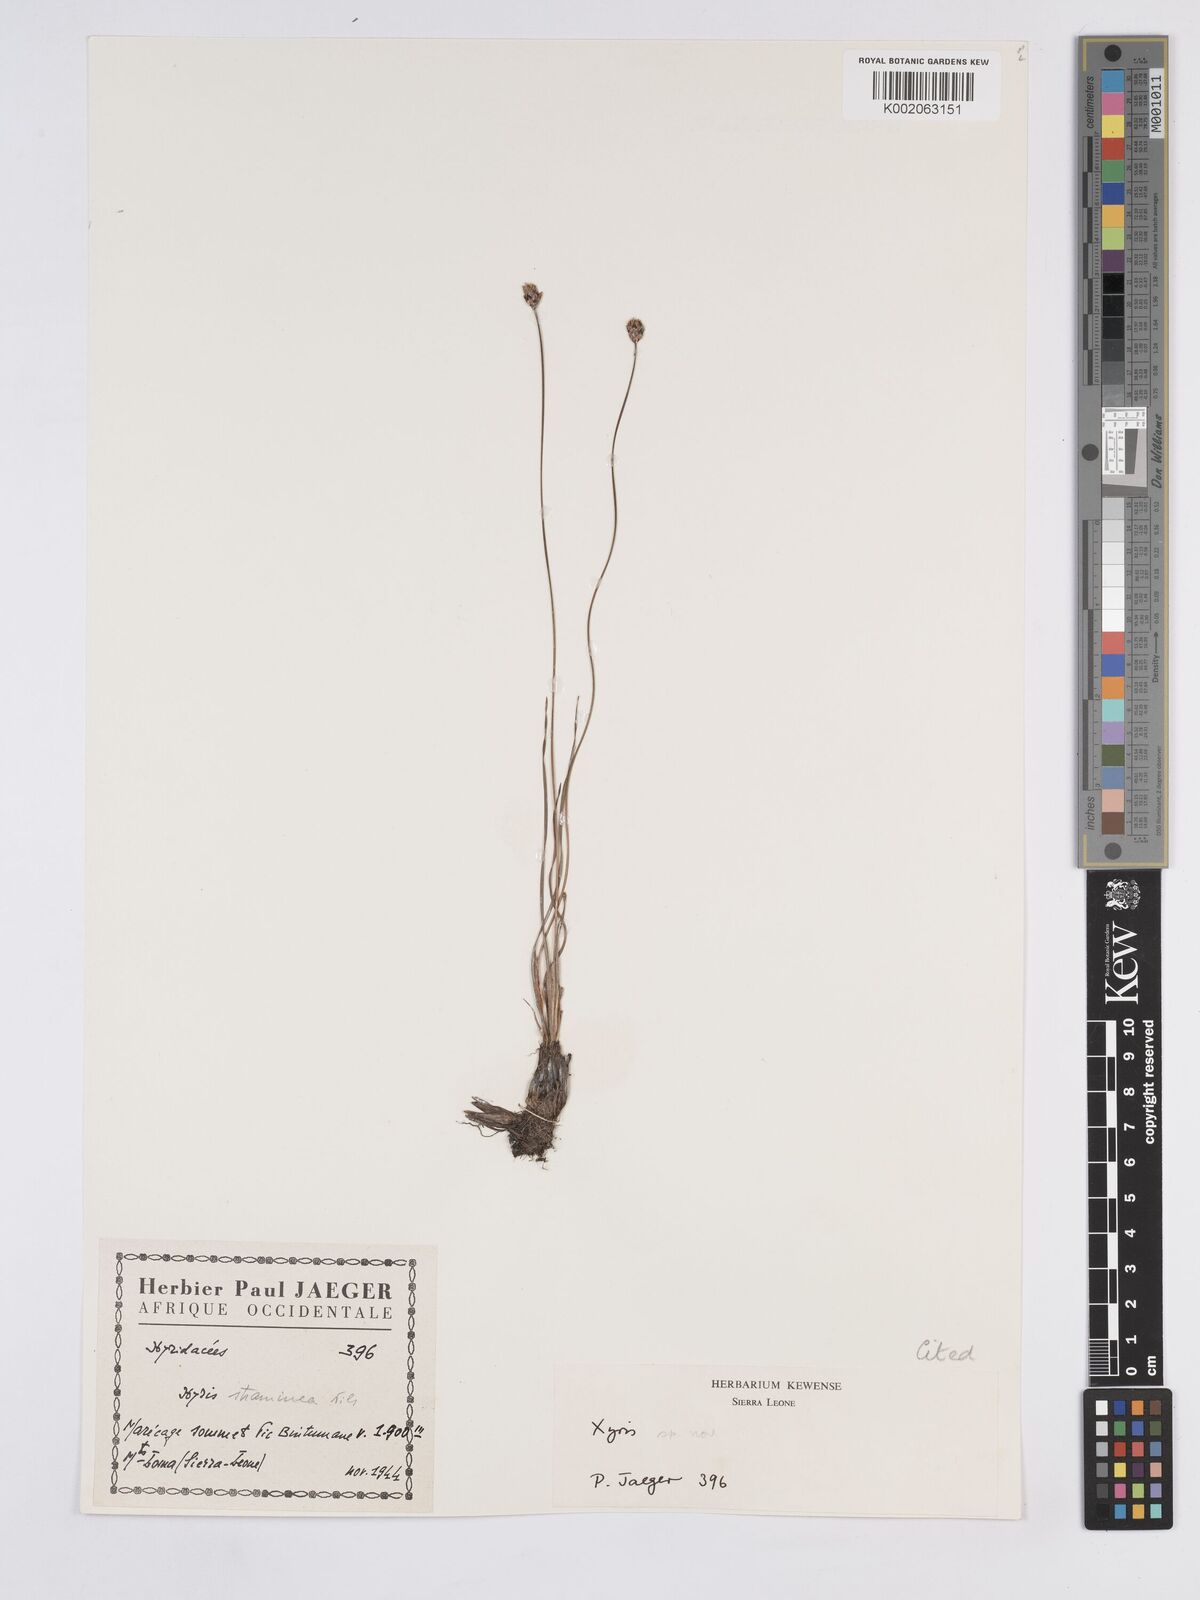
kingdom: Plantae
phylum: Tracheophyta
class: Liliopsida
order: Poales
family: Xyridaceae
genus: Xyris
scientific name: Xyris festucifolia
